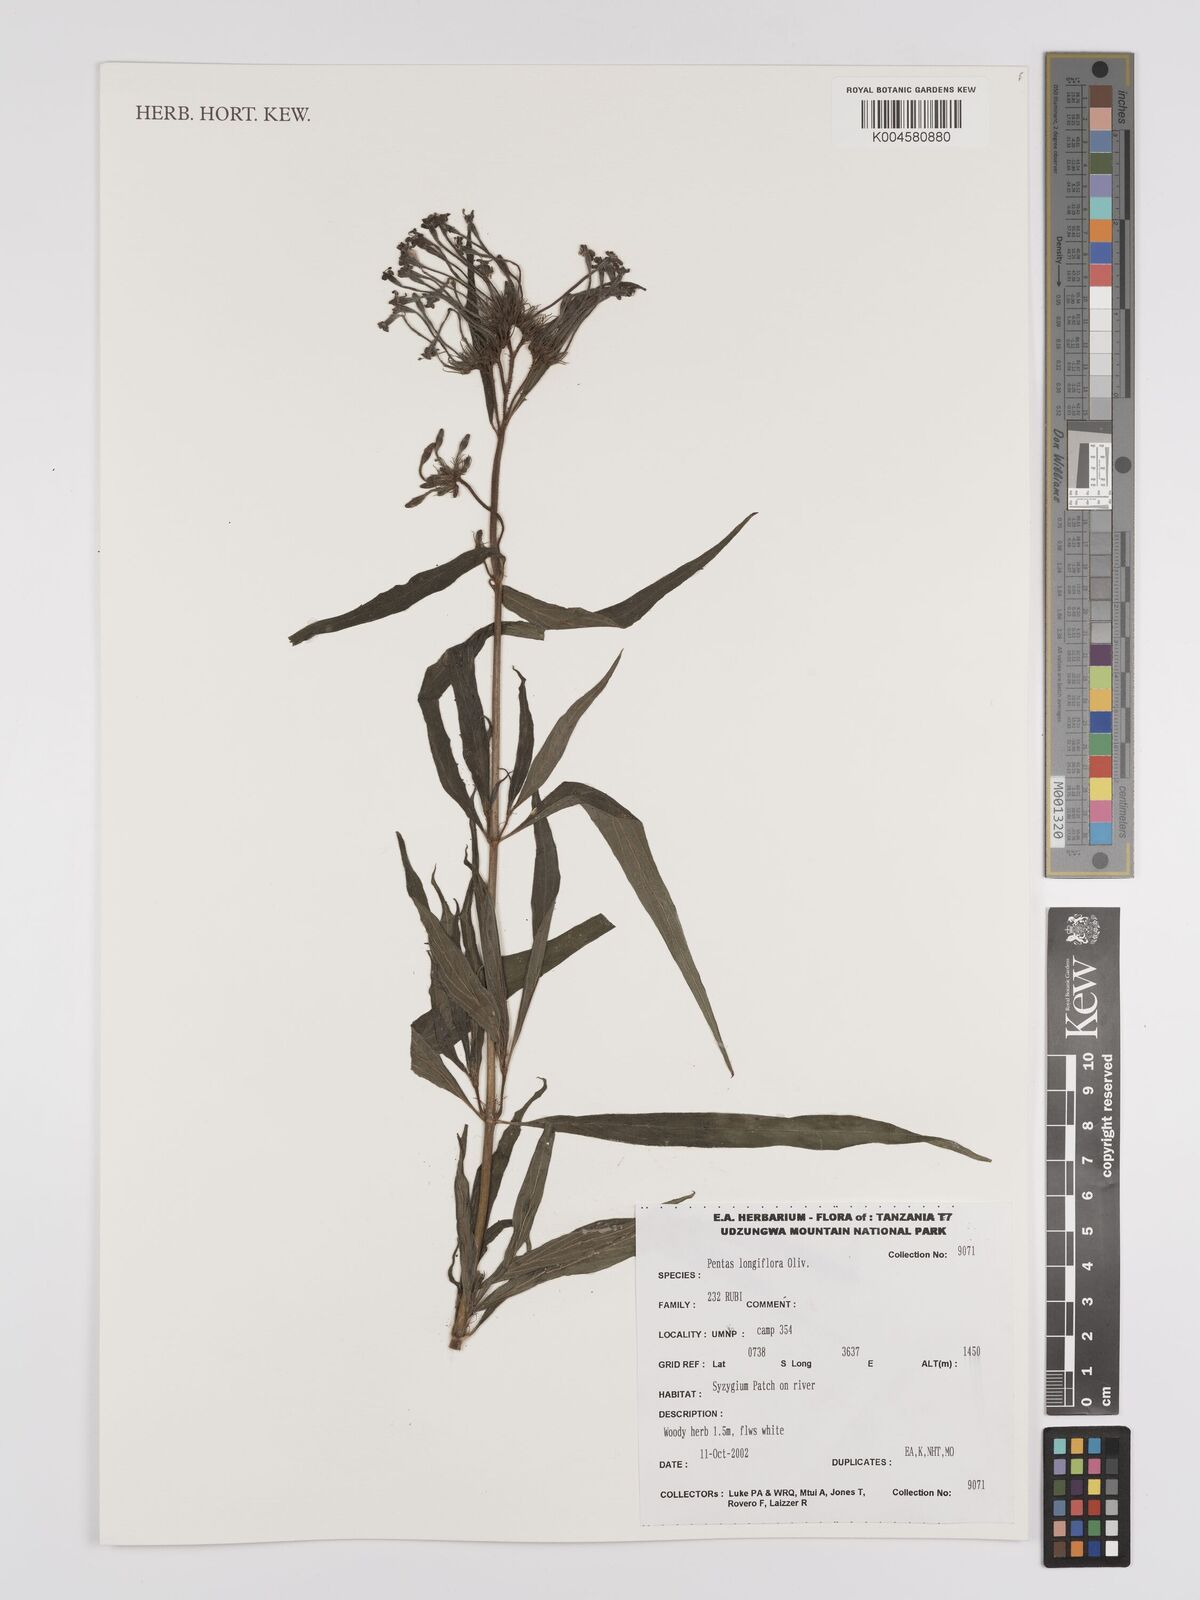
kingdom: Plantae
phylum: Tracheophyta
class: Magnoliopsida
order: Gentianales
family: Rubiaceae
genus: Dolichopentas
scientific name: Dolichopentas longiflora
